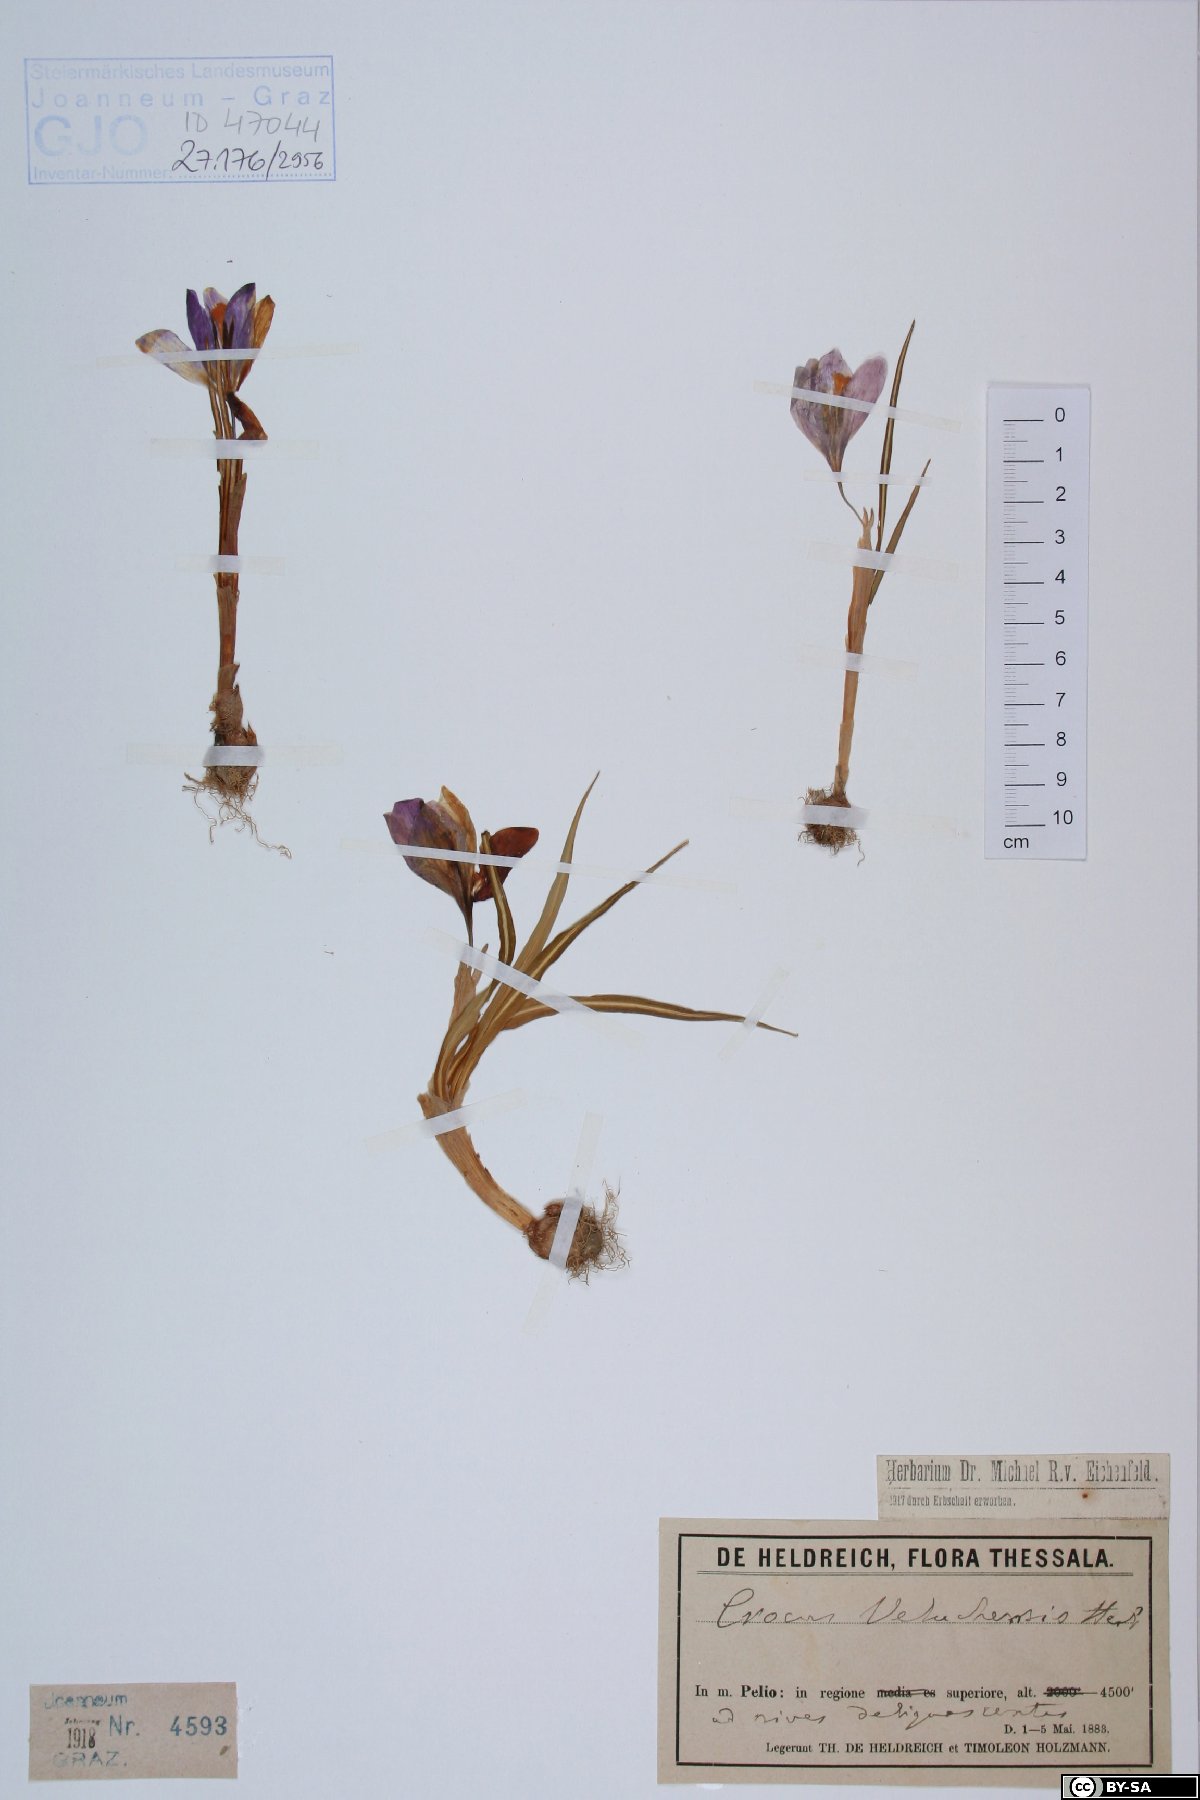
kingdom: Plantae
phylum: Tracheophyta
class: Liliopsida
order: Asparagales
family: Iridaceae
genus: Crocus
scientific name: Crocus veluchensis
